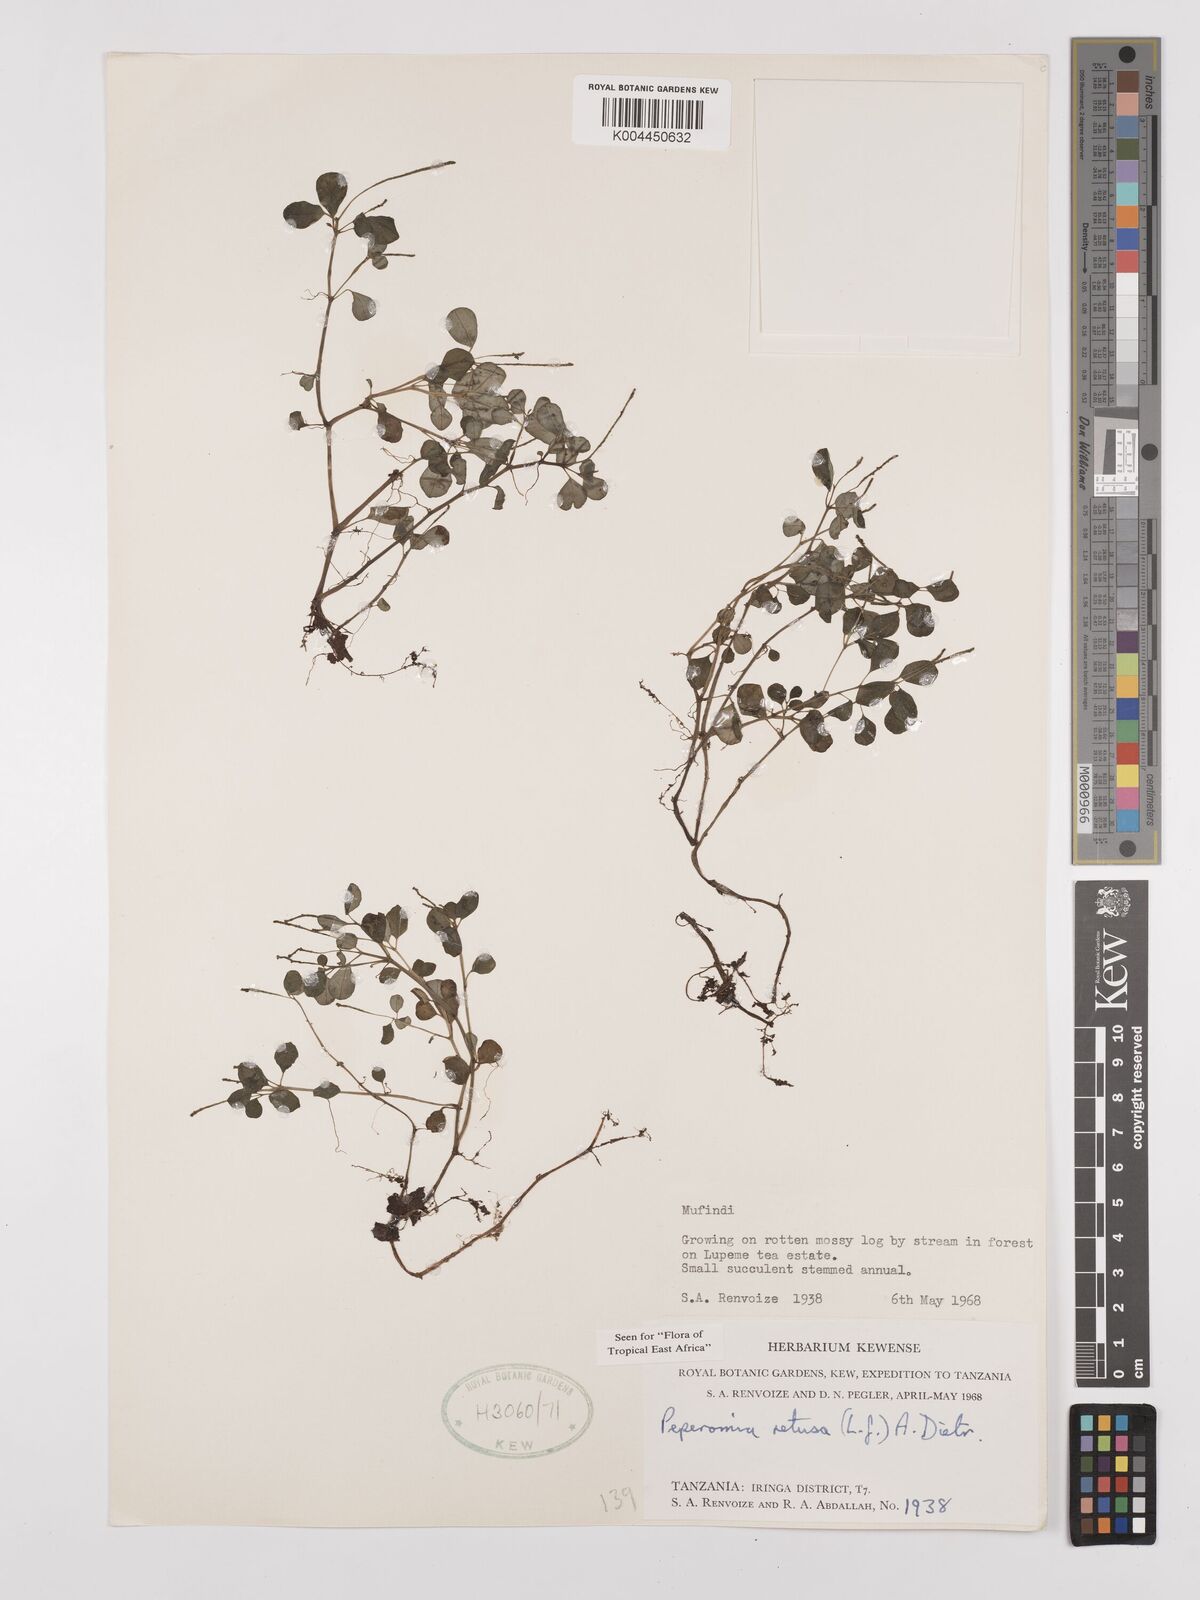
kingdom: Plantae
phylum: Tracheophyta
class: Magnoliopsida
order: Piperales
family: Piperaceae
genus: Peperomia
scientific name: Peperomia retusa
